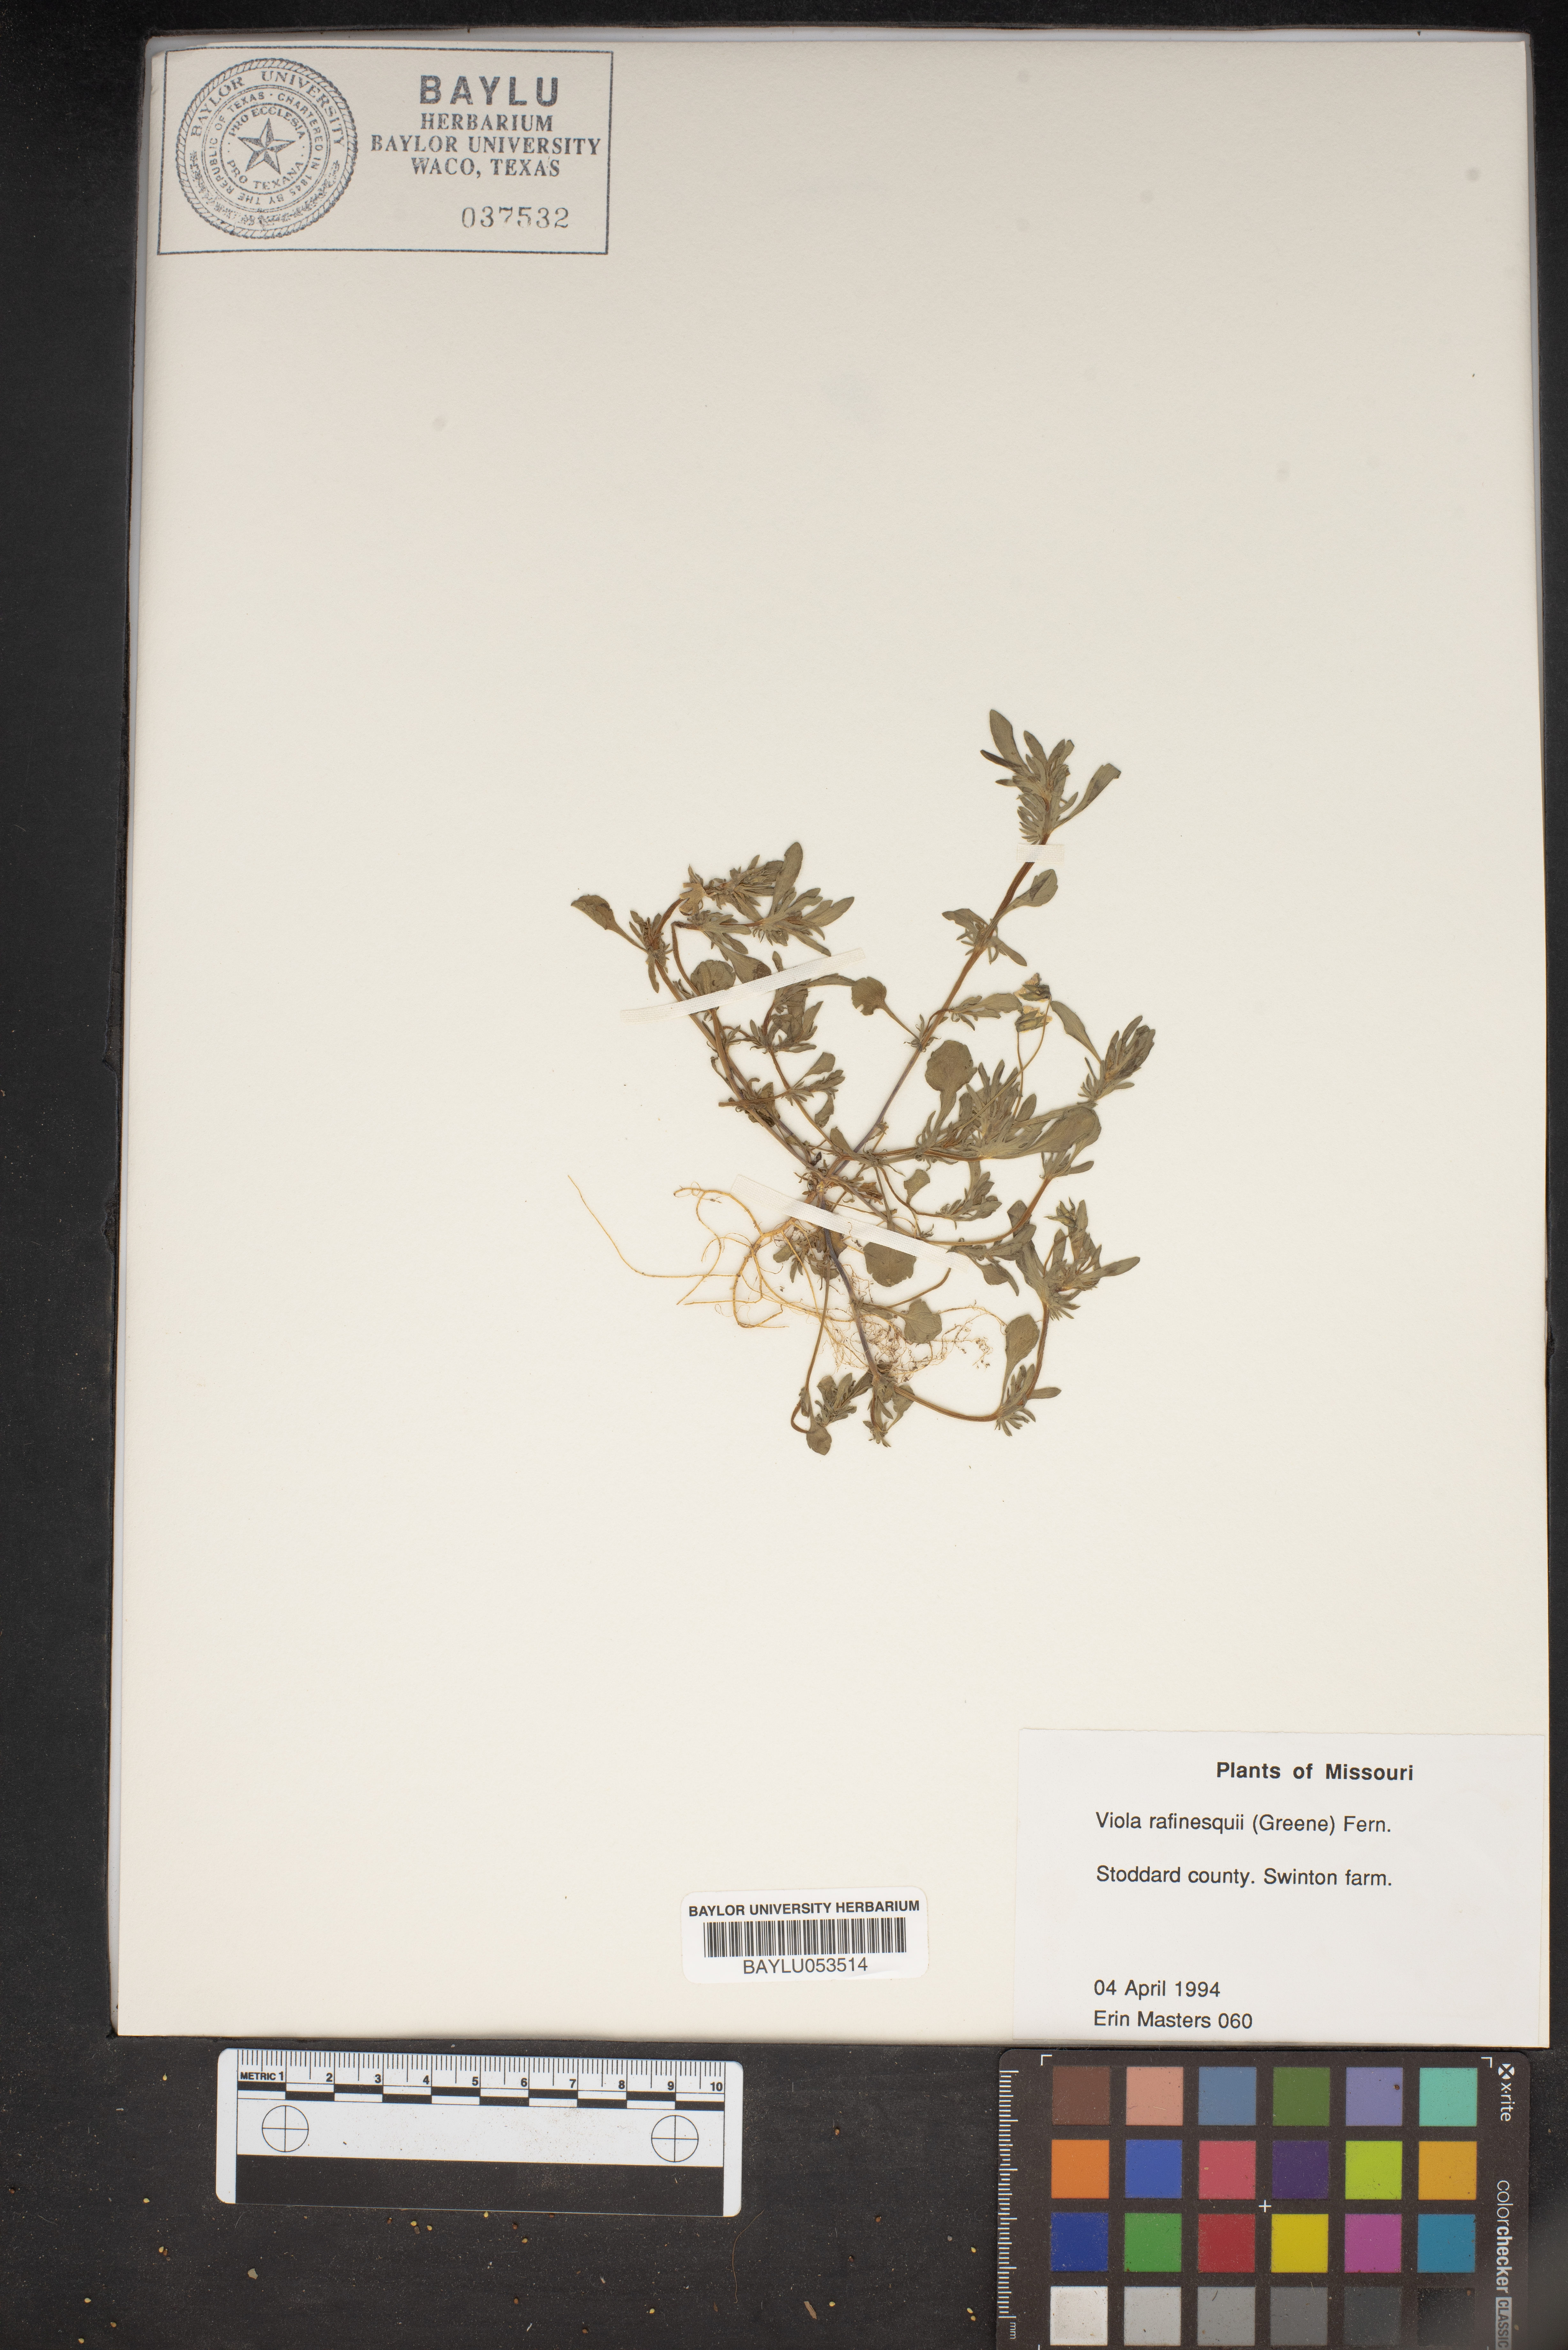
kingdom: Plantae
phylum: Tracheophyta
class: Magnoliopsida
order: Malpighiales
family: Violaceae
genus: Viola
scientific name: Viola rafinesquei
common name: American field pansy
